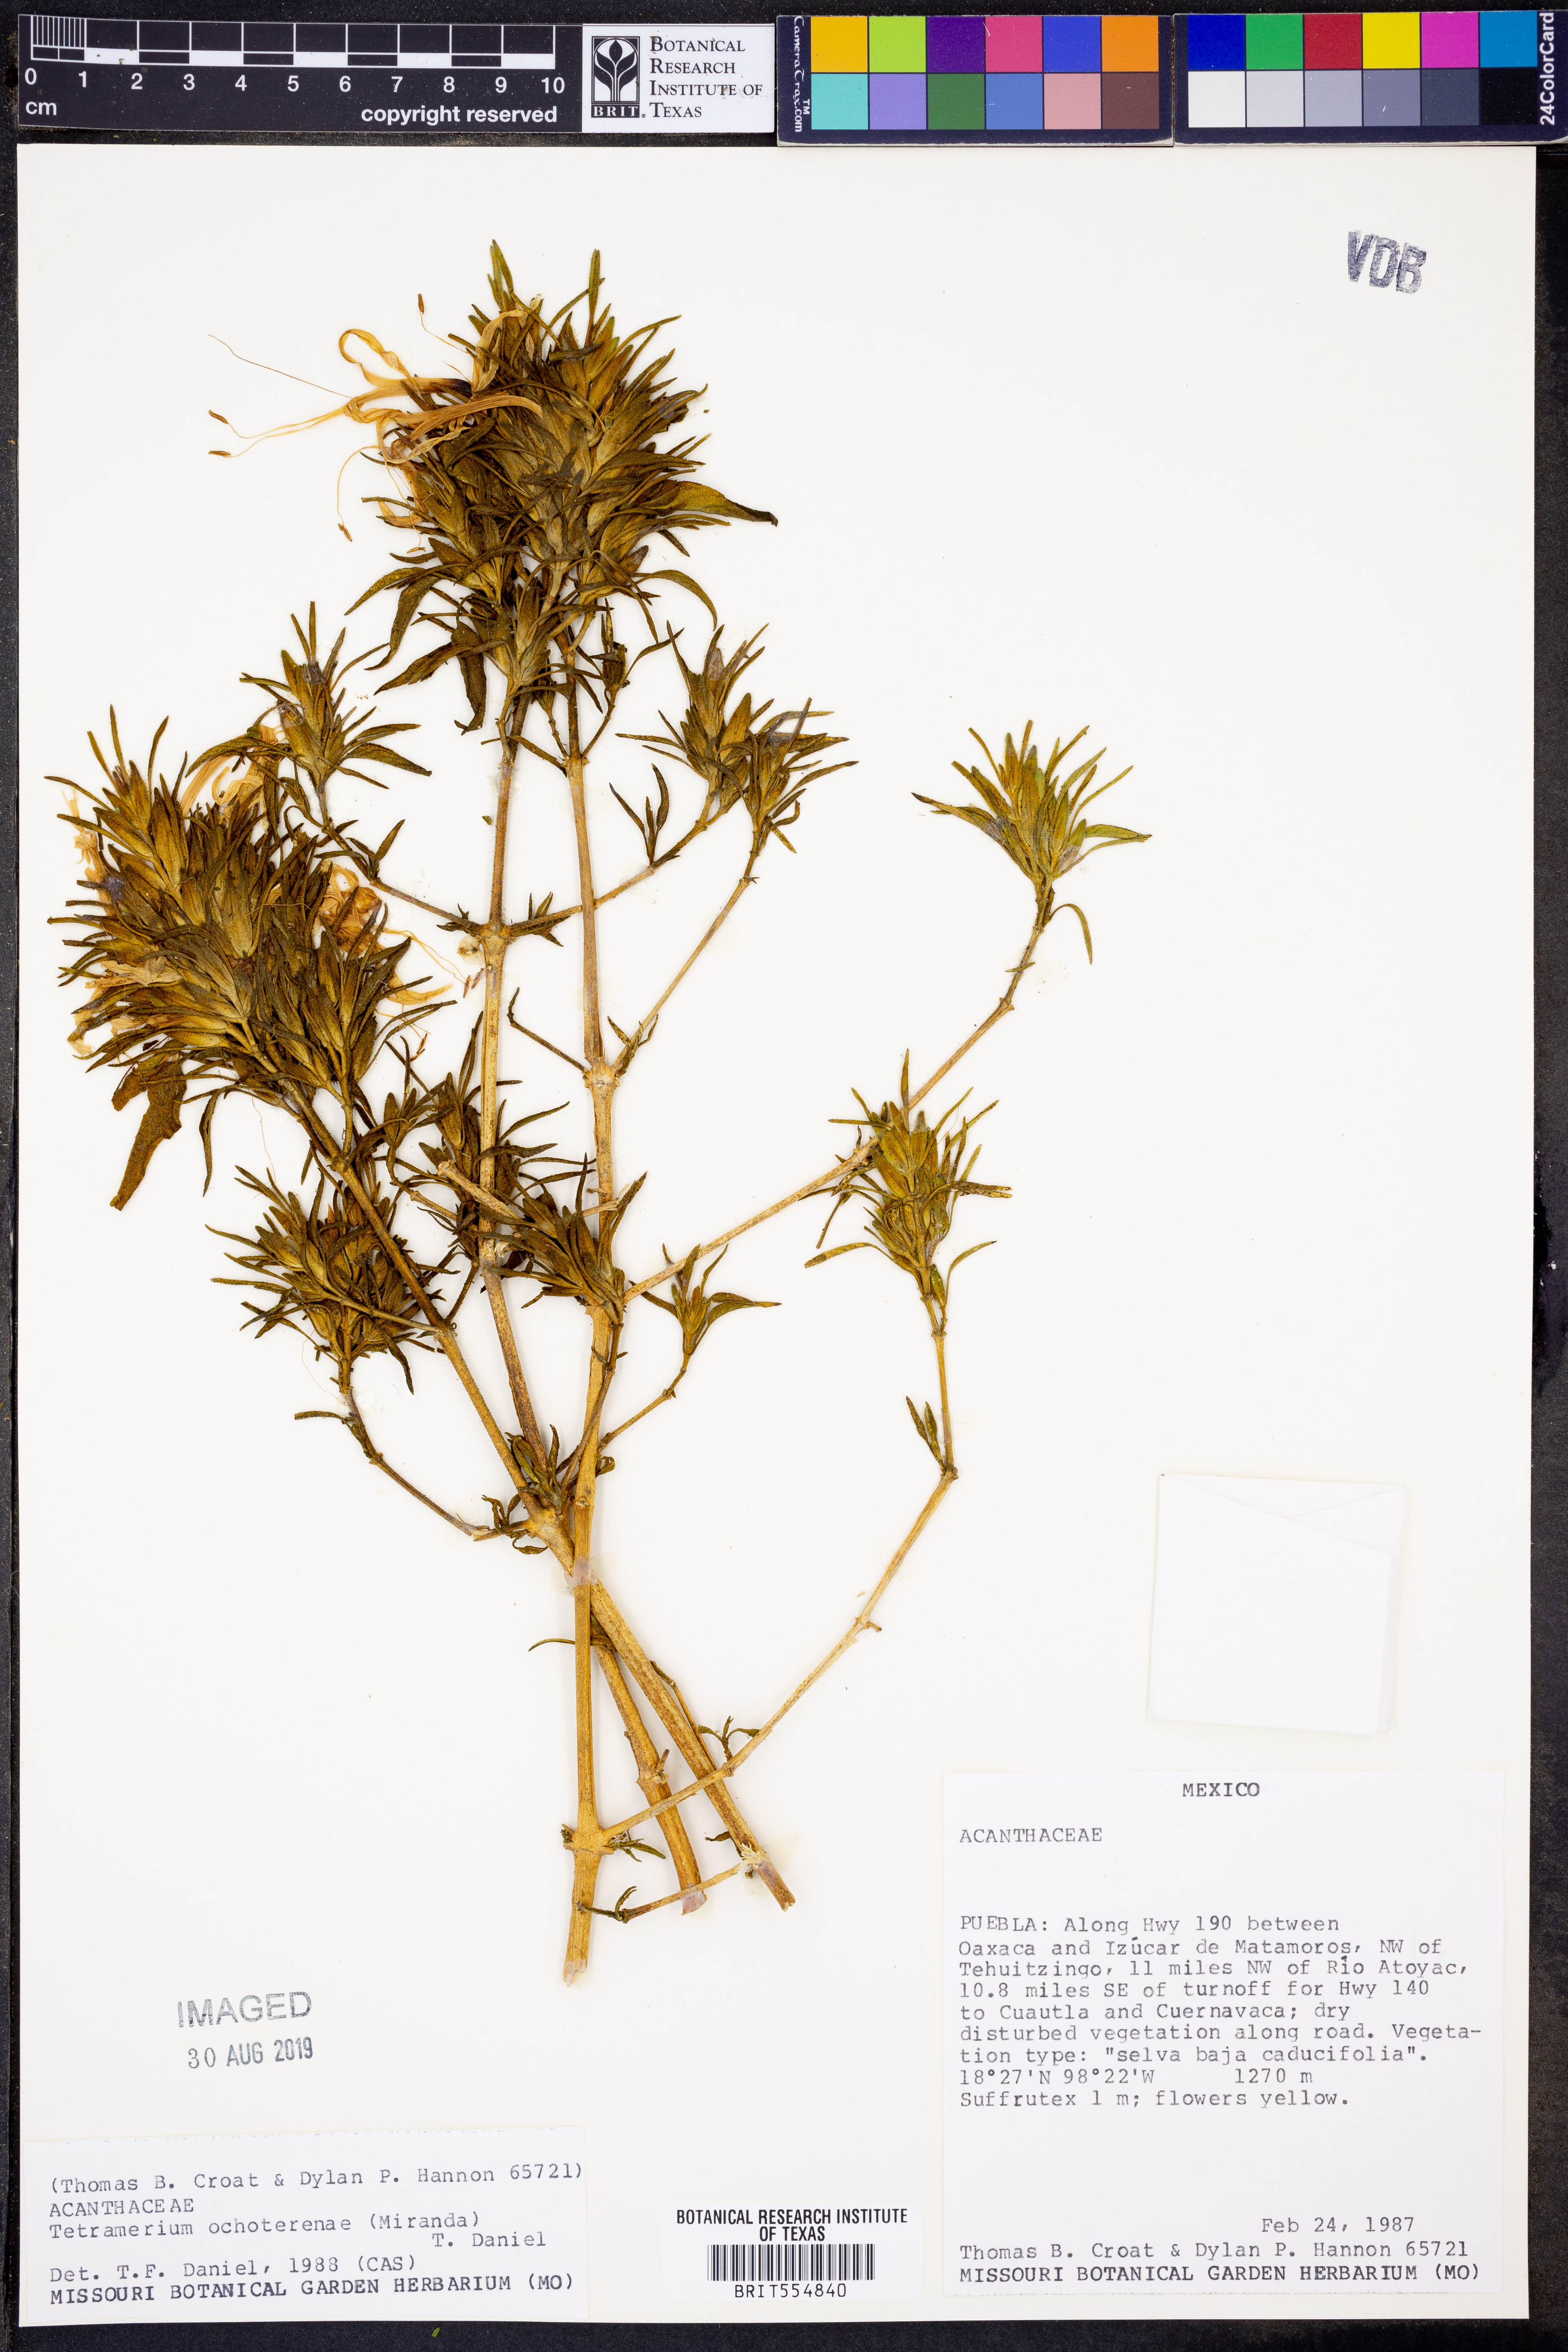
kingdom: Plantae
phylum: Tracheophyta
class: Magnoliopsida
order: Lamiales
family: Acanthaceae
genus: Tetramerium
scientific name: Tetramerium ochoterenae
